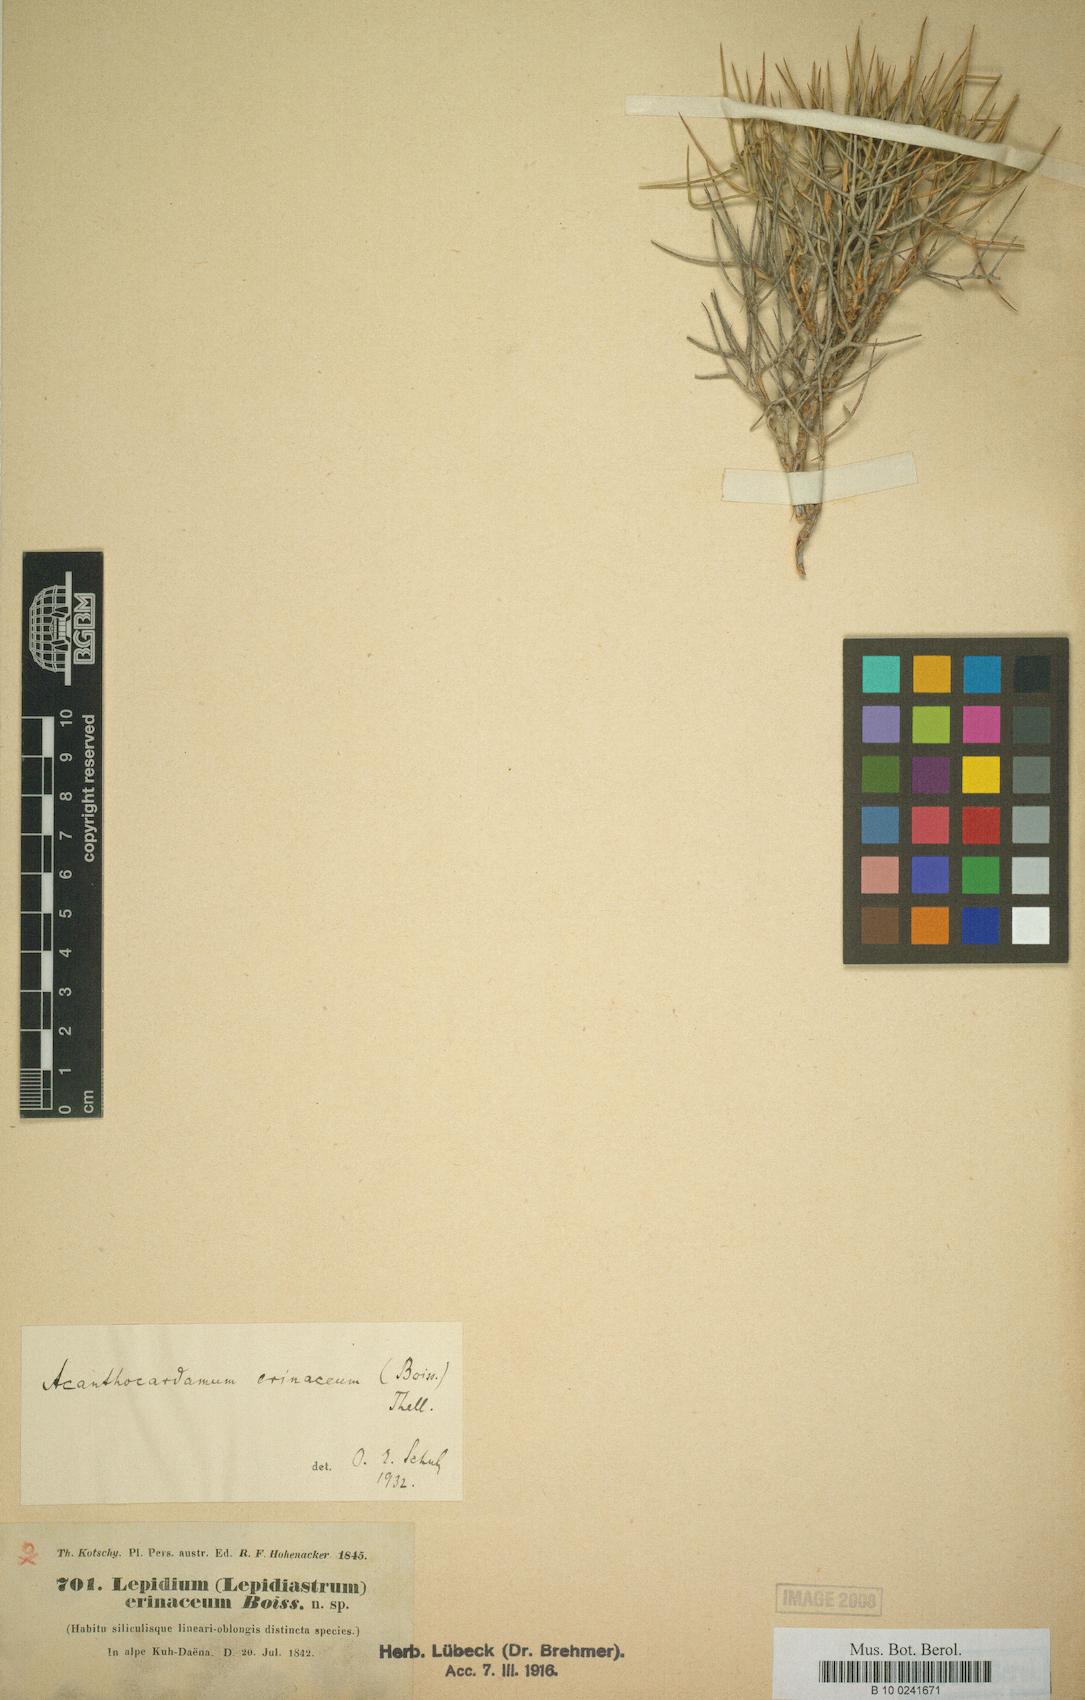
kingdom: Plantae
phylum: Tracheophyta
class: Magnoliopsida
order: Brassicales
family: Brassicaceae
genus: Aethionema
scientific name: Aethionema erinaceum
